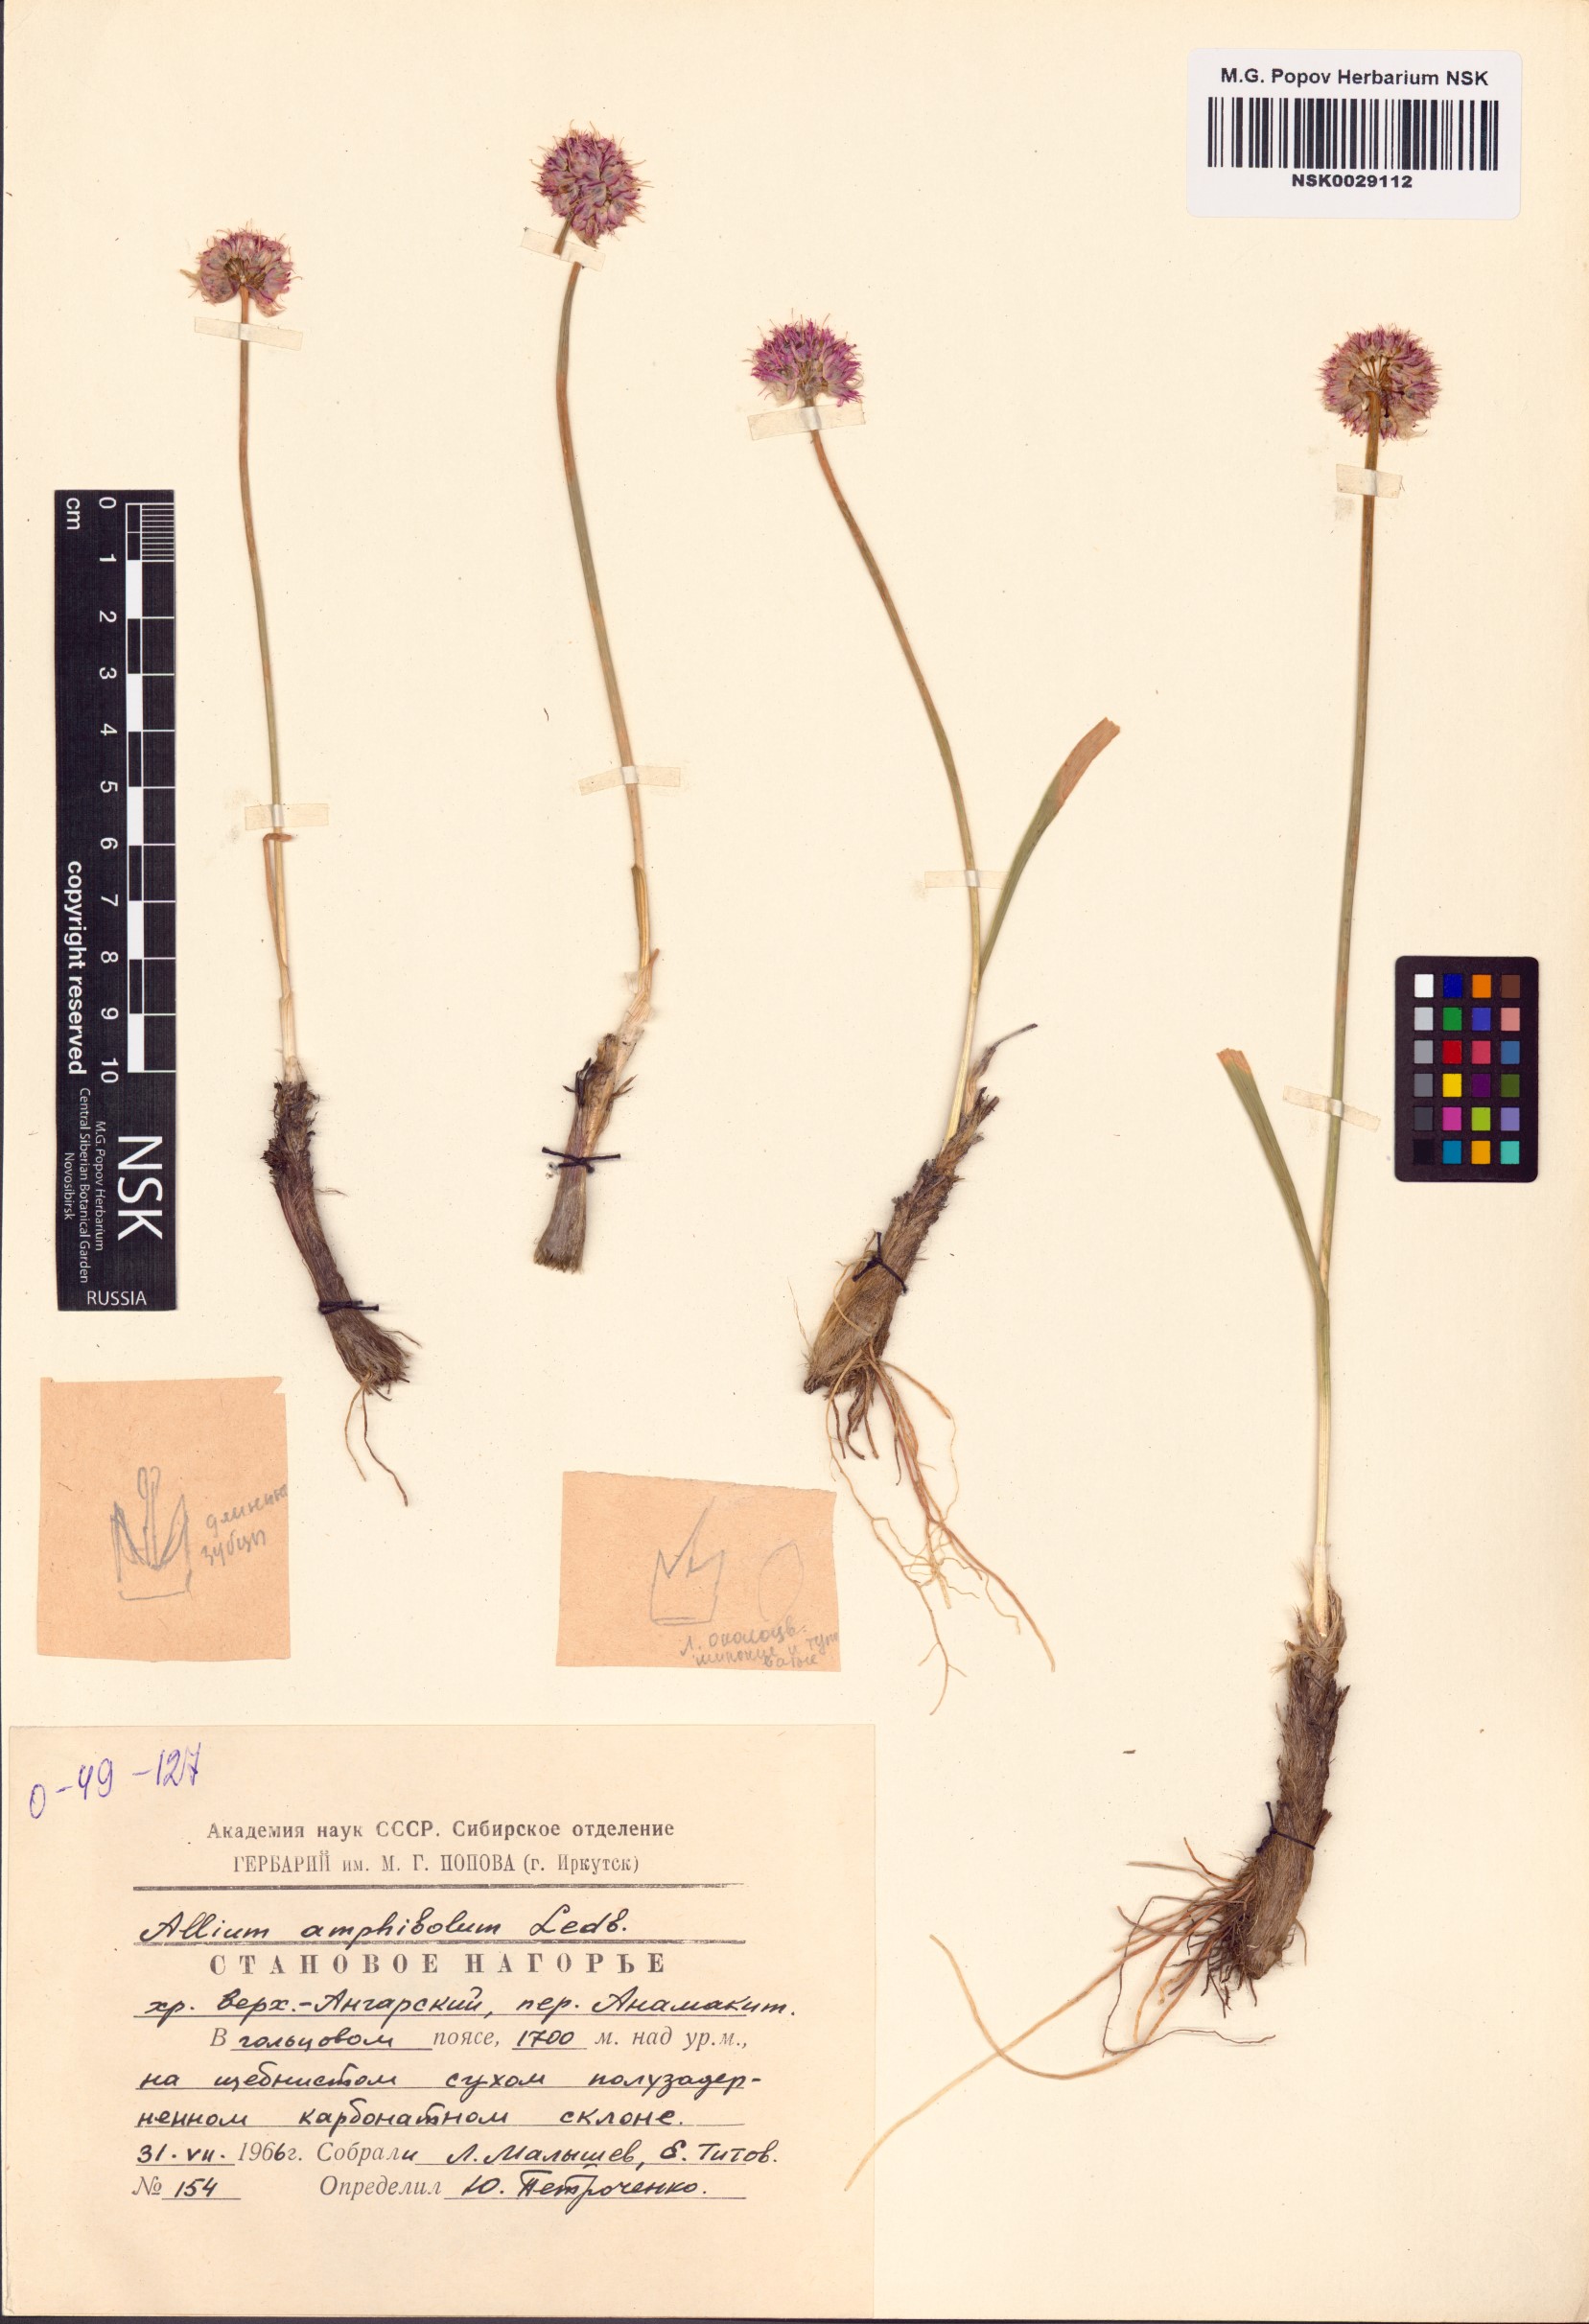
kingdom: Plantae
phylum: Tracheophyta
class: Liliopsida
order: Asparagales
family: Amaryllidaceae
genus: Allium
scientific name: Allium amphibolum
